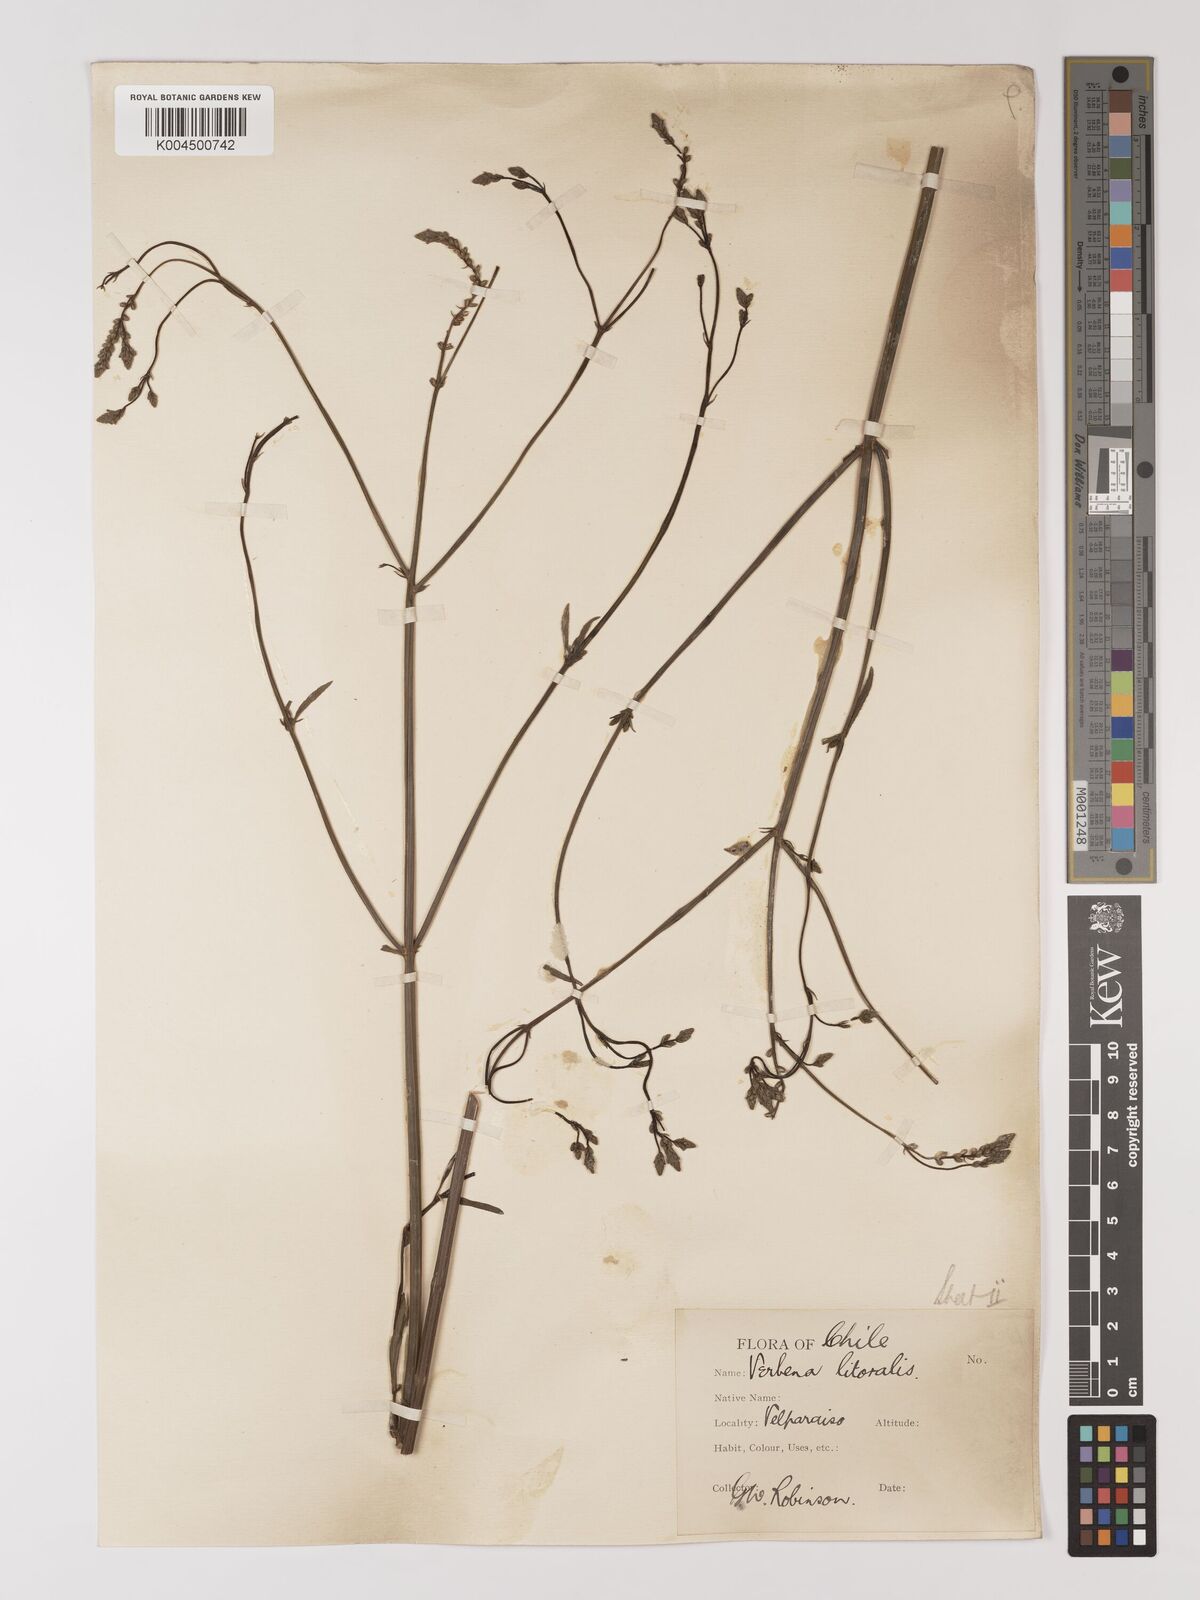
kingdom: Plantae
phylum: Tracheophyta
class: Magnoliopsida
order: Lamiales
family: Verbenaceae
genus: Verbena
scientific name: Verbena litoralis
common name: Seashore vervain
